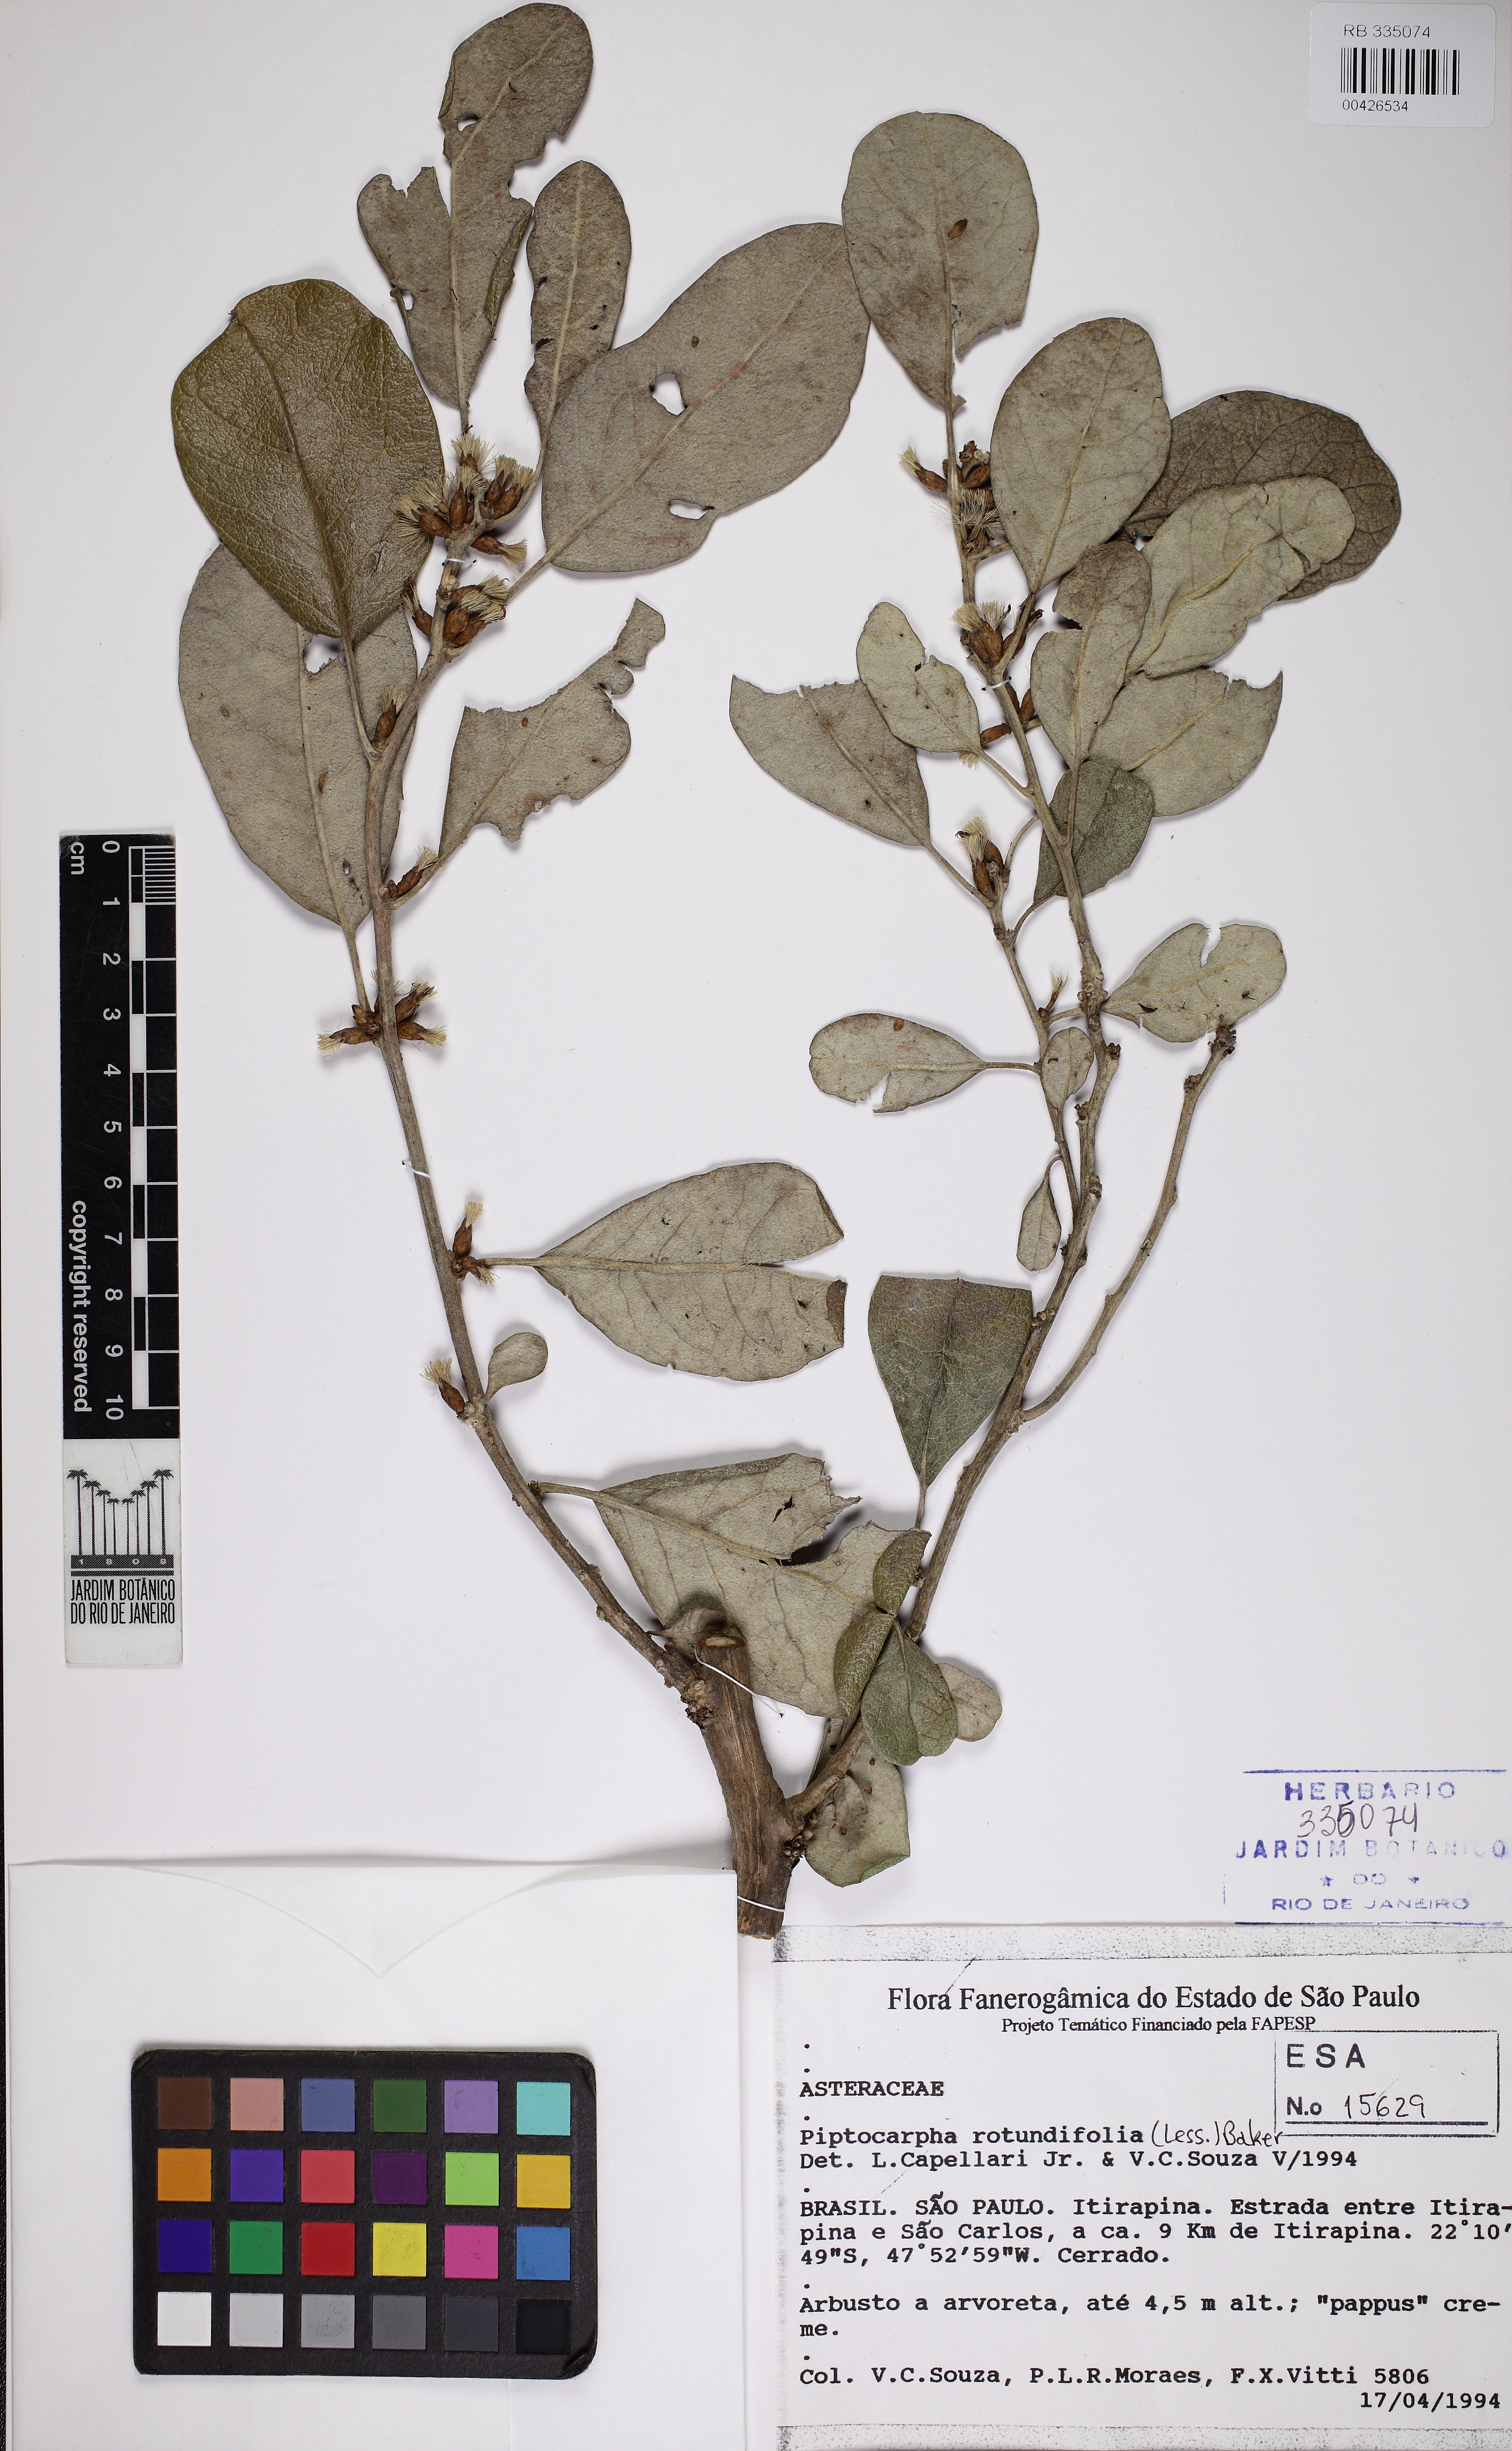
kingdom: Plantae
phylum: Tracheophyta
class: Magnoliopsida
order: Asterales
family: Asteraceae
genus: Piptocarpha
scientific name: Piptocarpha rotundifolia
